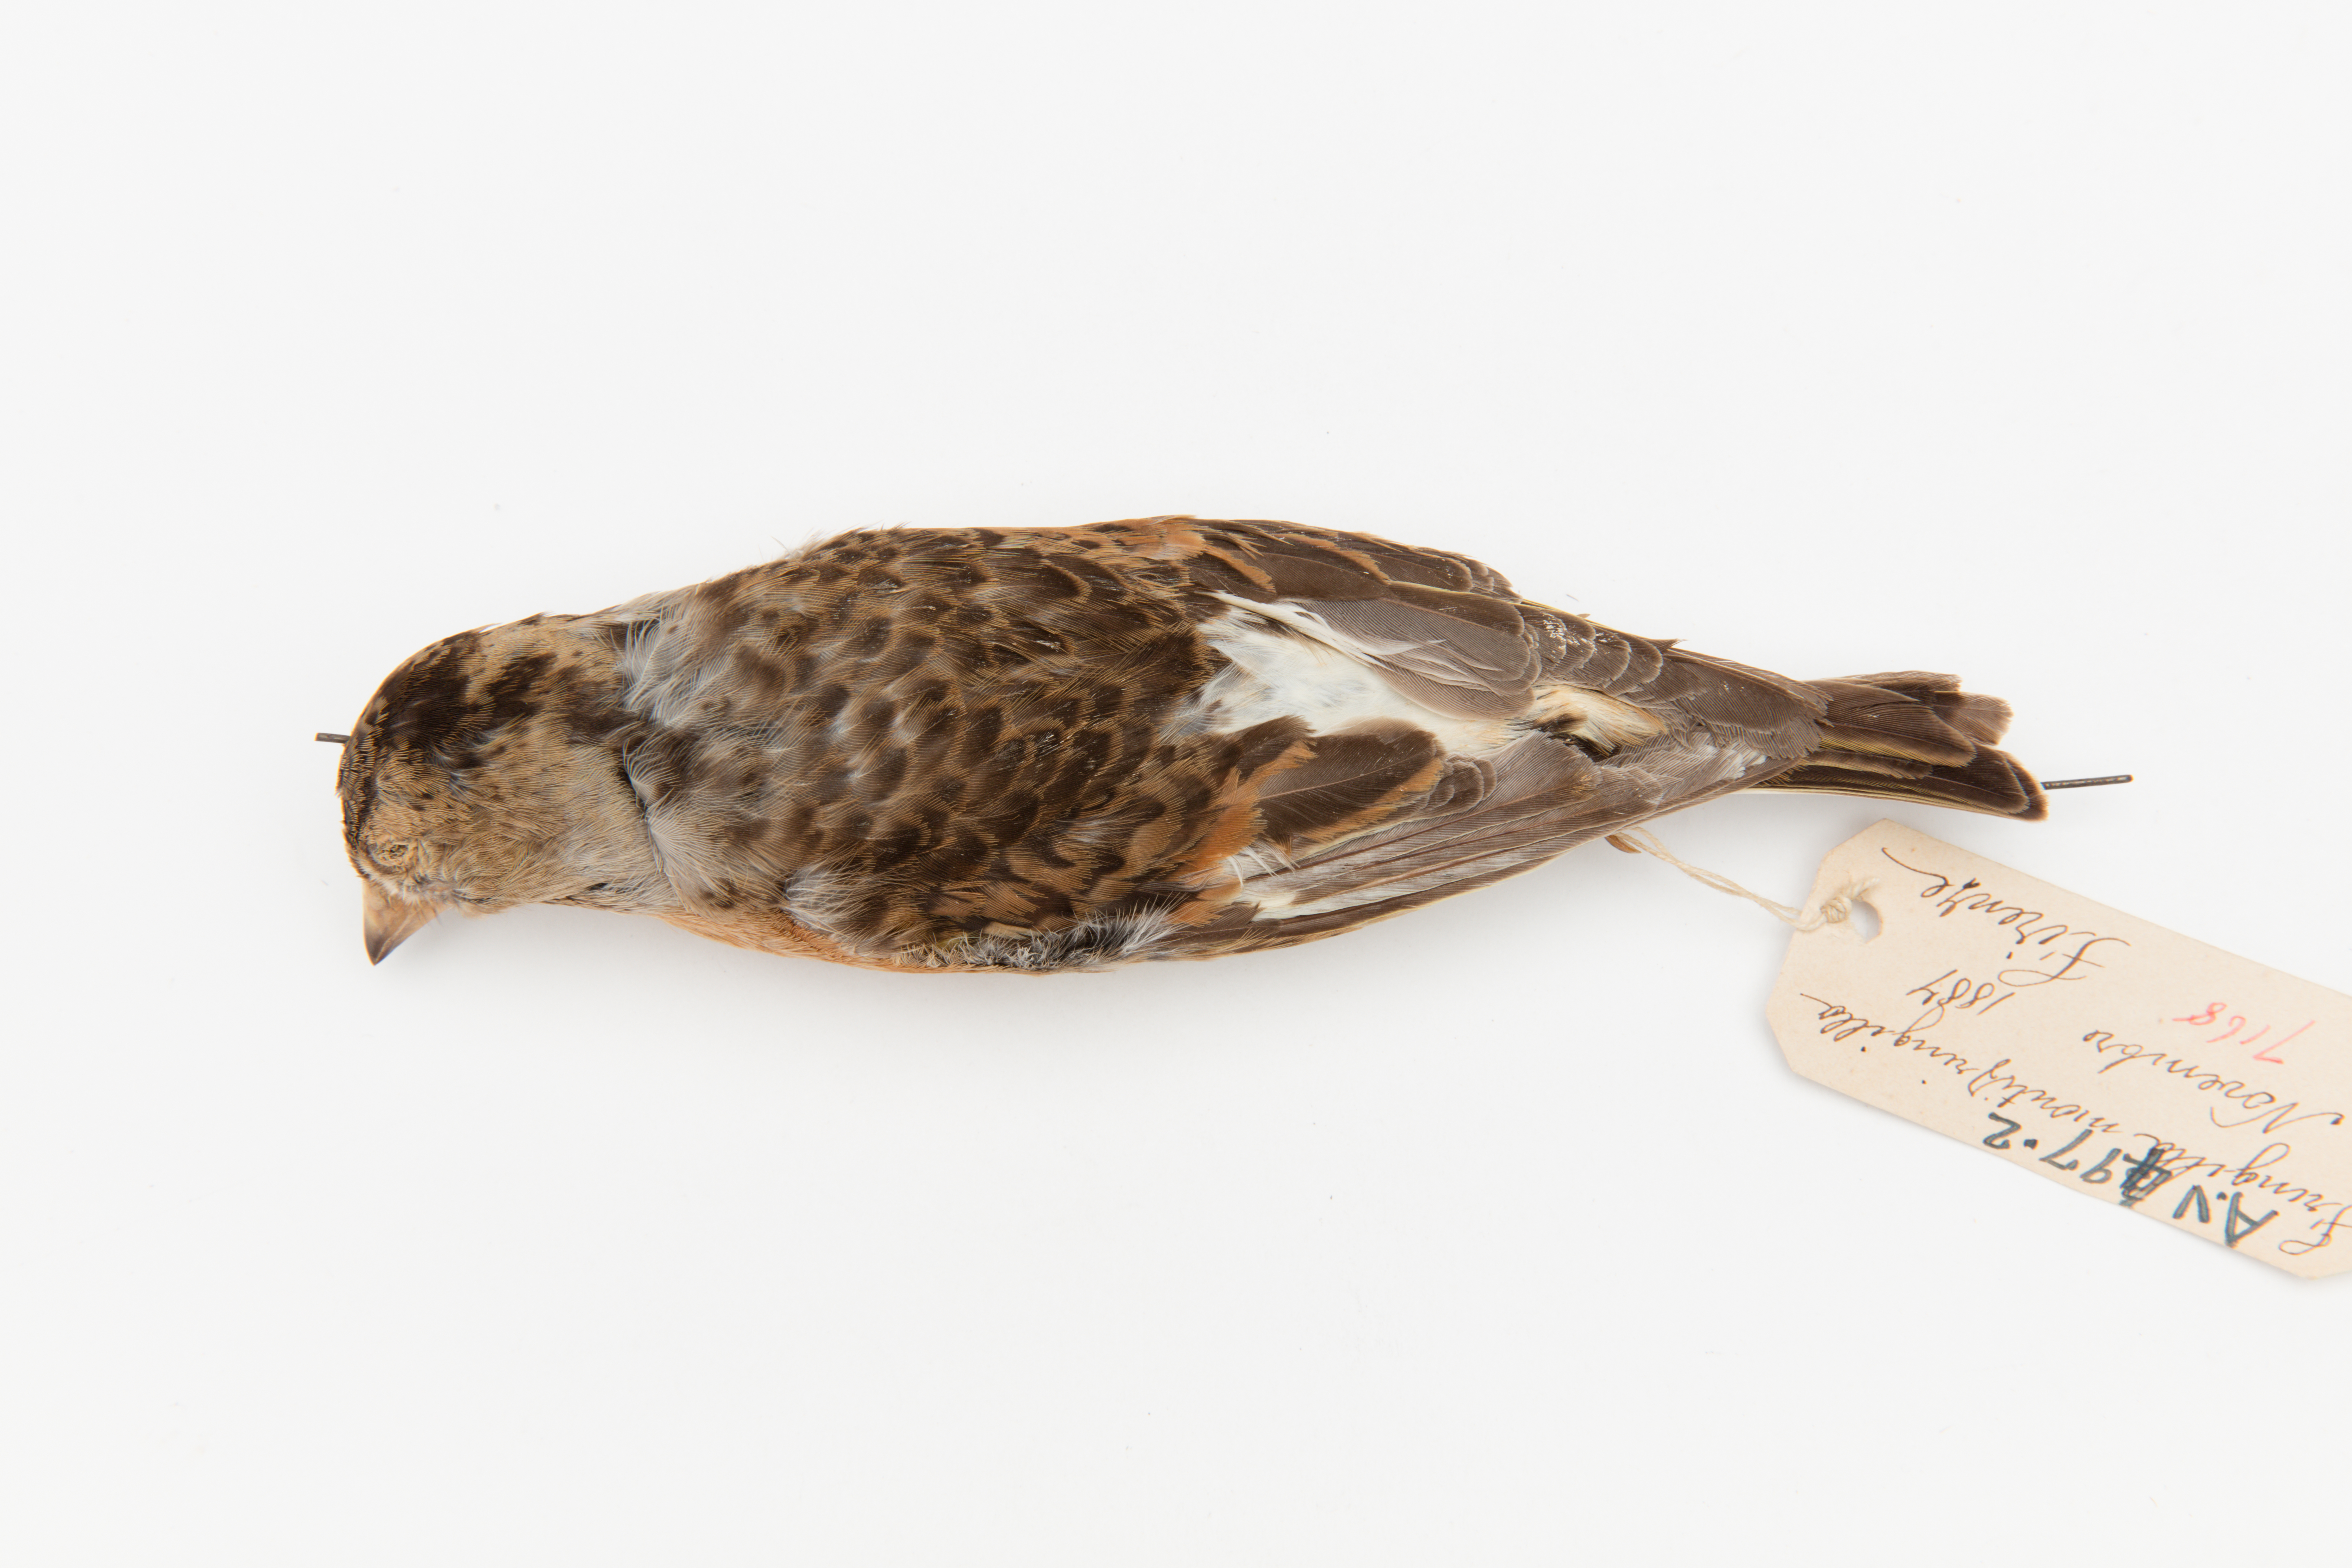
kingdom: Animalia
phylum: Chordata
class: Aves
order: Passeriformes
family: Fringillidae
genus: Fringilla
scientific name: Fringilla montifringilla
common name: Brambling
